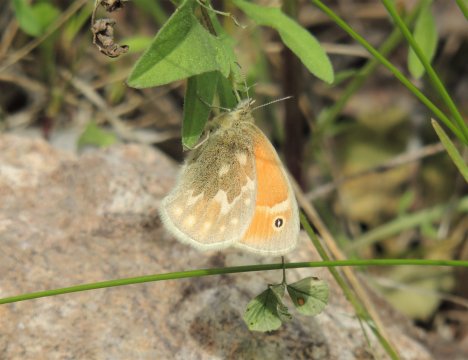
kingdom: Animalia
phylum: Arthropoda
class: Insecta
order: Lepidoptera
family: Nymphalidae
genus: Coenonympha
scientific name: Coenonympha tullia
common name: Large Heath
